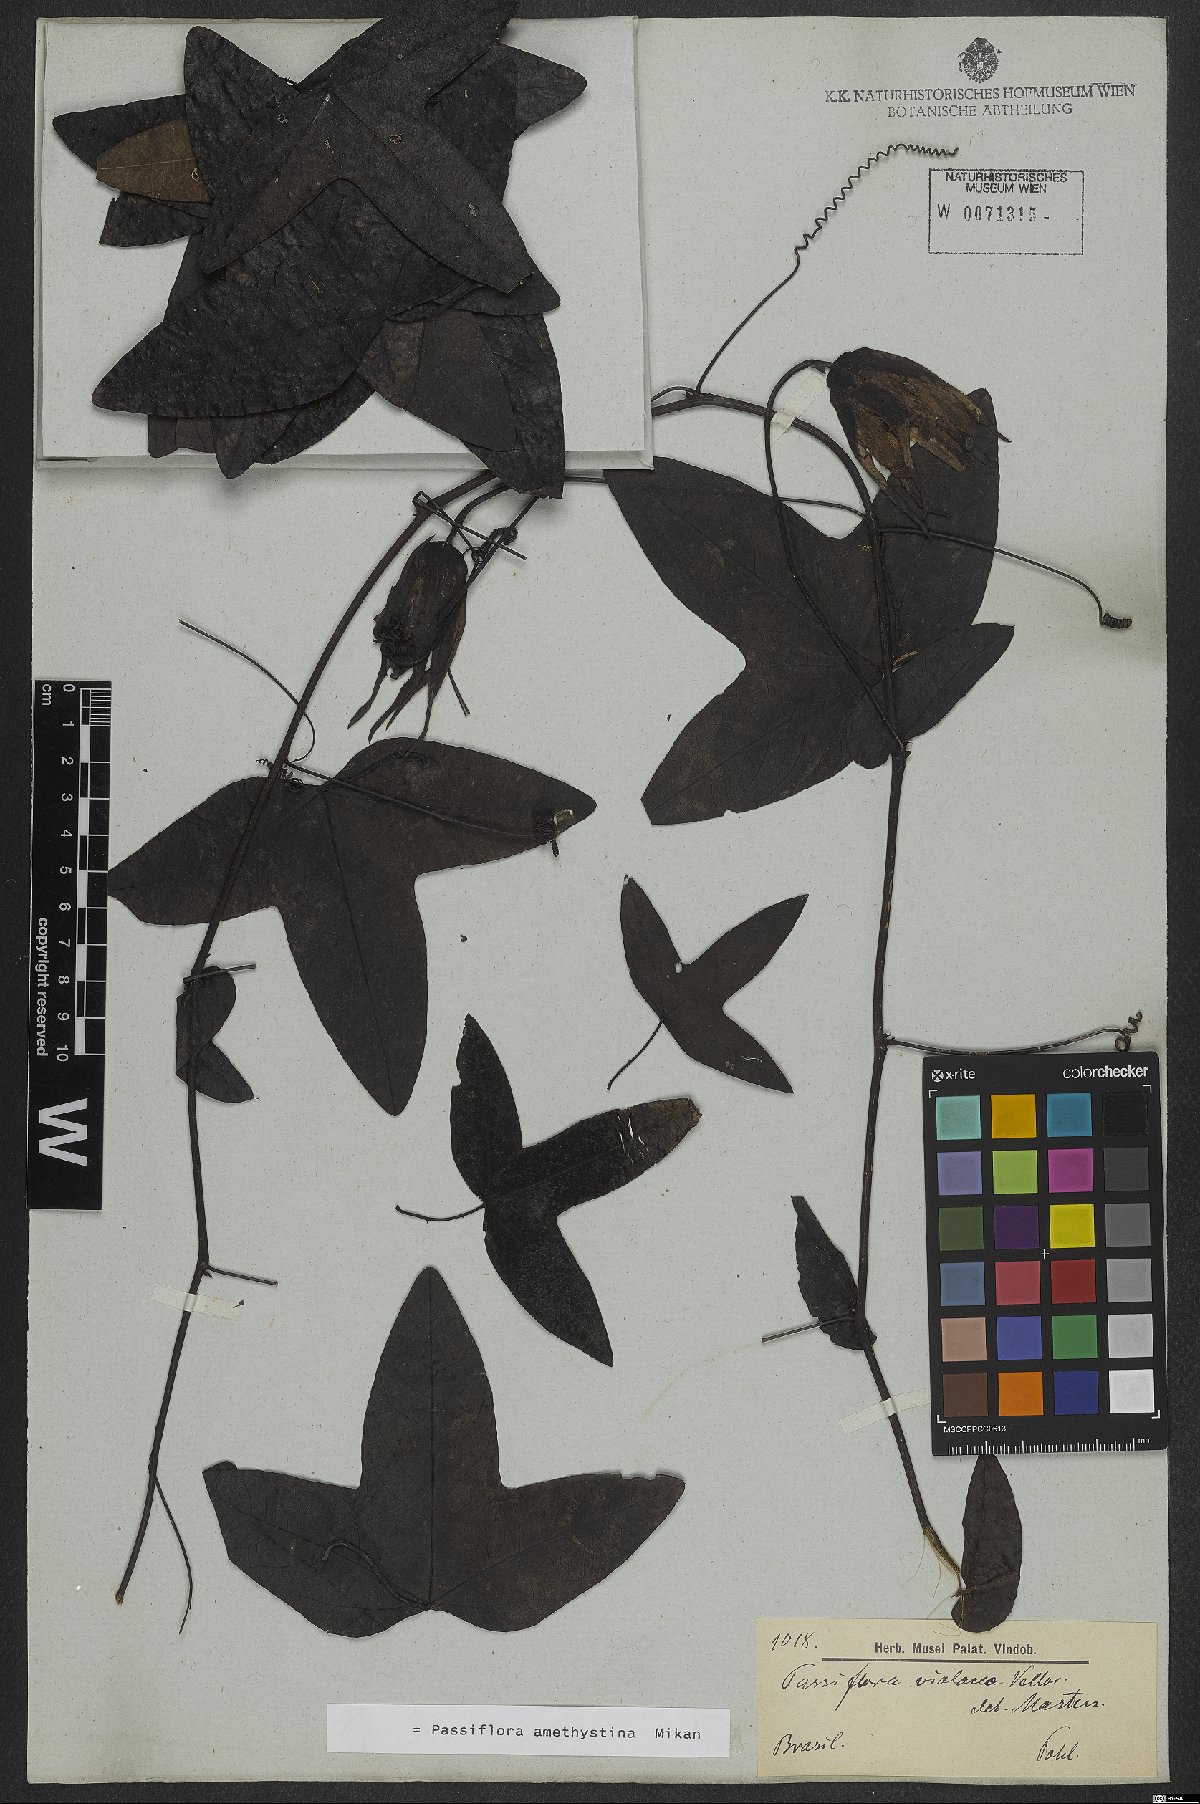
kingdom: Plantae
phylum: Tracheophyta
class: Magnoliopsida
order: Malpighiales
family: Passifloraceae
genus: Passiflora
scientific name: Passiflora amethystina
